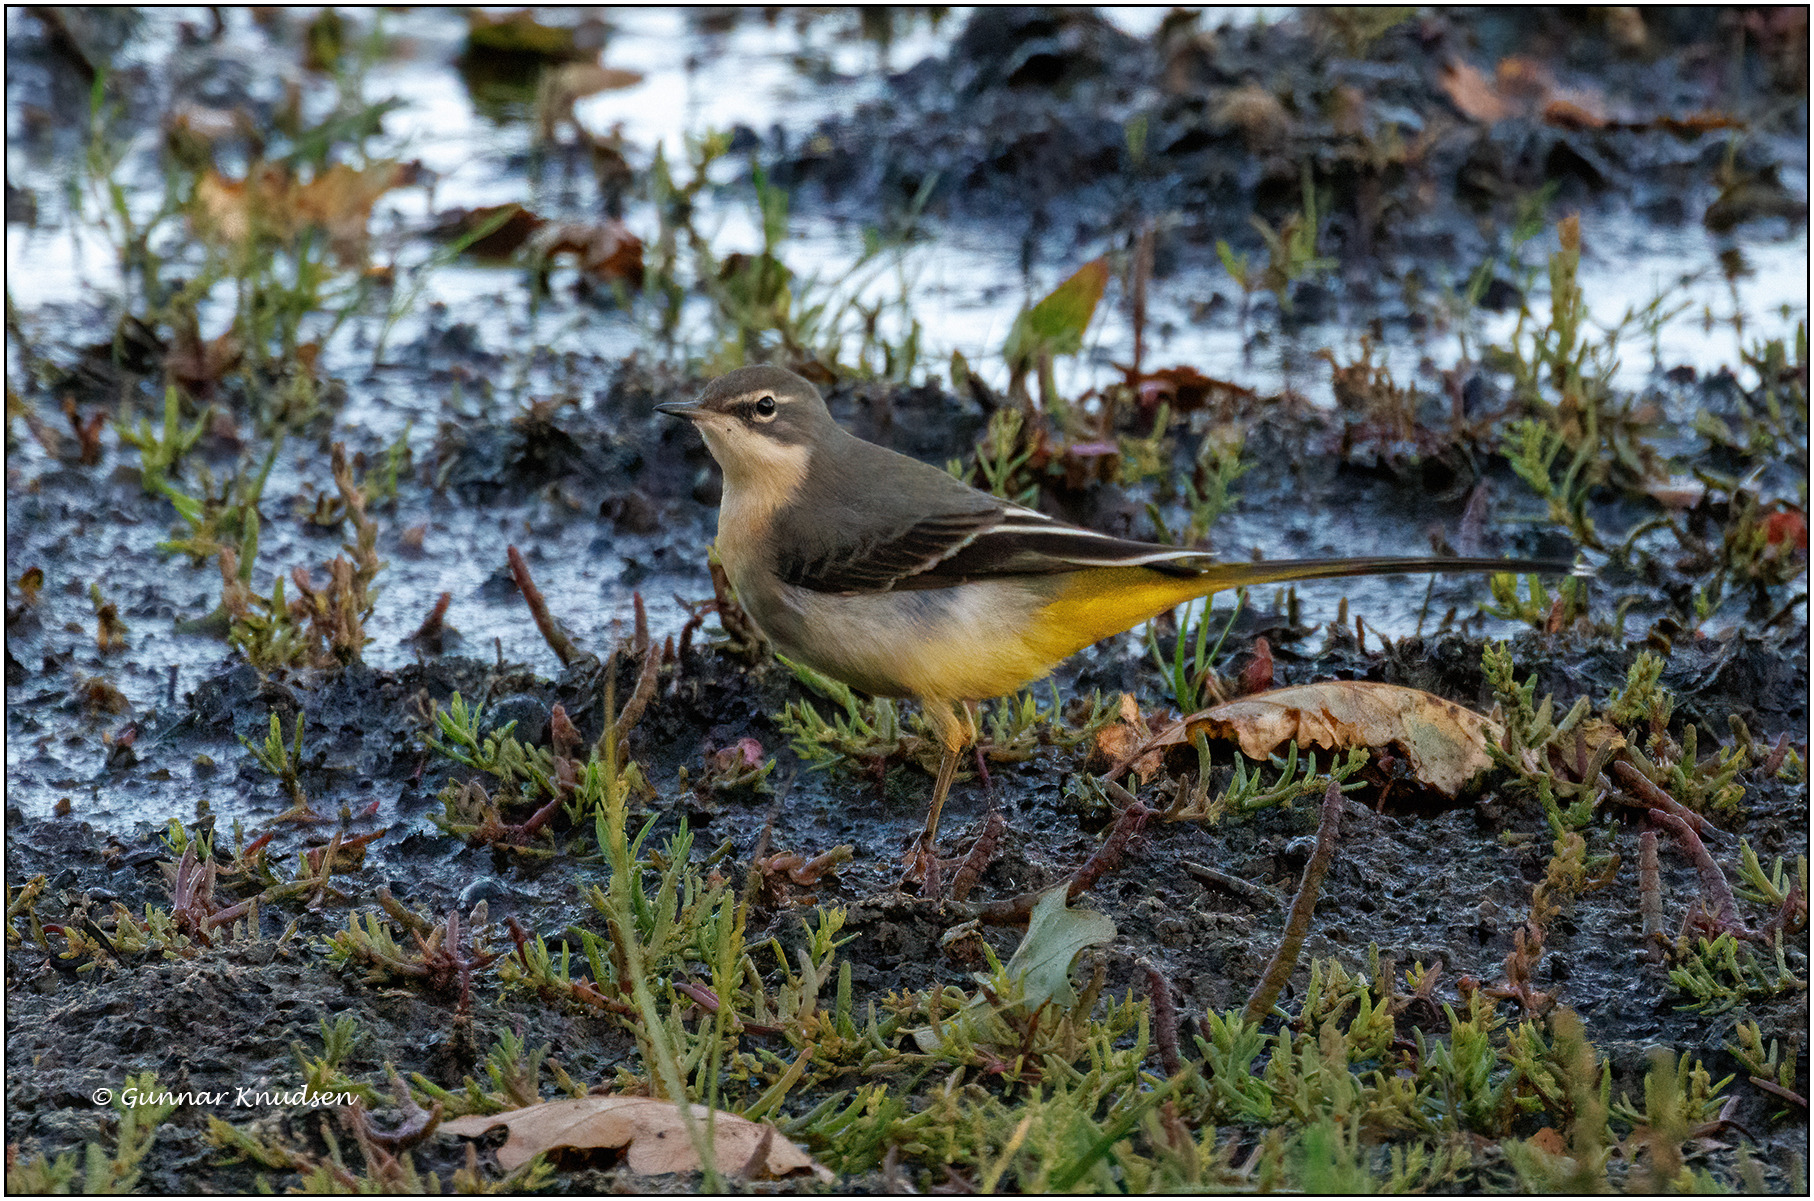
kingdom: Animalia
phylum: Chordata
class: Aves
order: Passeriformes
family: Motacillidae
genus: Motacilla
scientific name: Motacilla cinerea
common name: Bjergvipstjert
